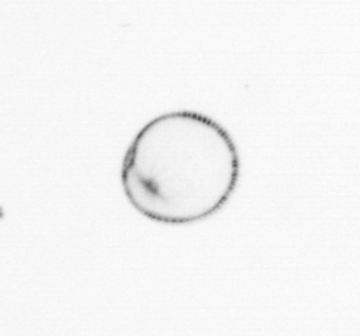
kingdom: Chromista
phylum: Myzozoa
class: Dinophyceae
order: Noctilucales
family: Noctilucaceae
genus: Noctiluca
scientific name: Noctiluca scintillans
